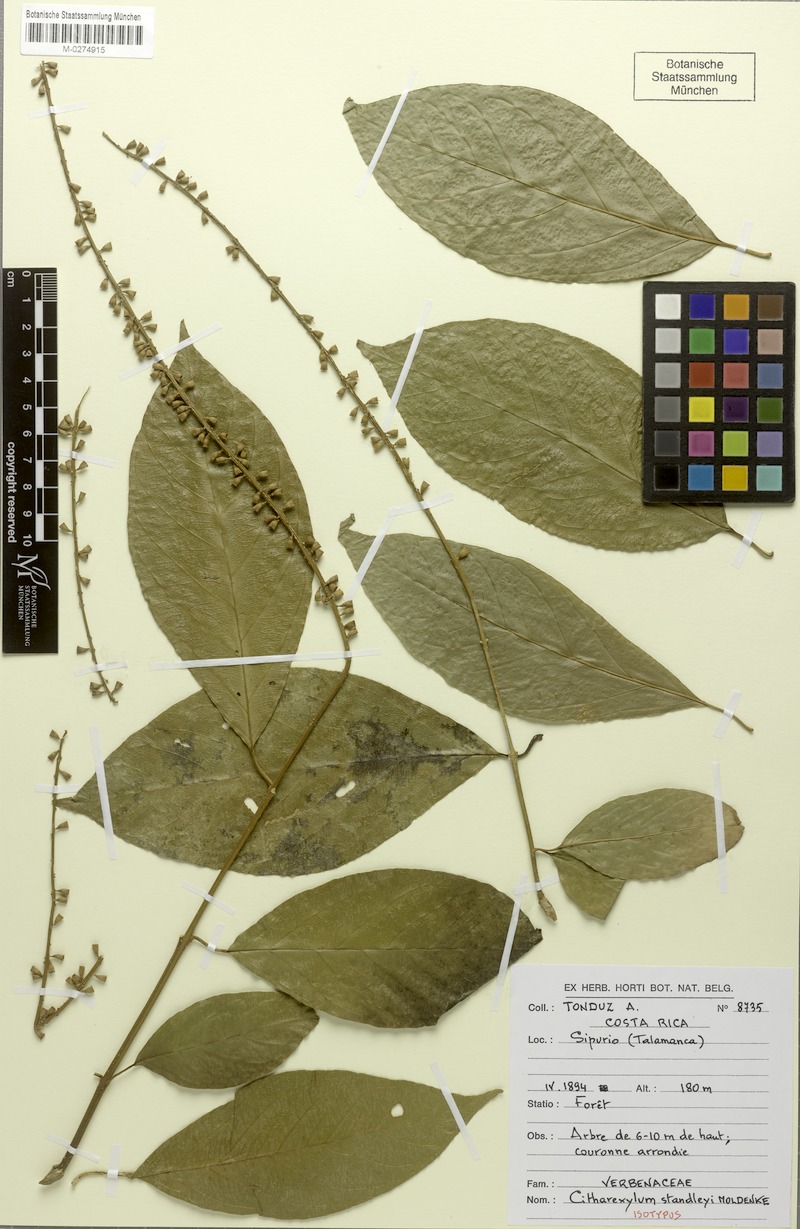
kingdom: Plantae
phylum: Tracheophyta
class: Magnoliopsida
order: Lamiales
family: Verbenaceae
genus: Citharexylum
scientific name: Citharexylum costaricense
